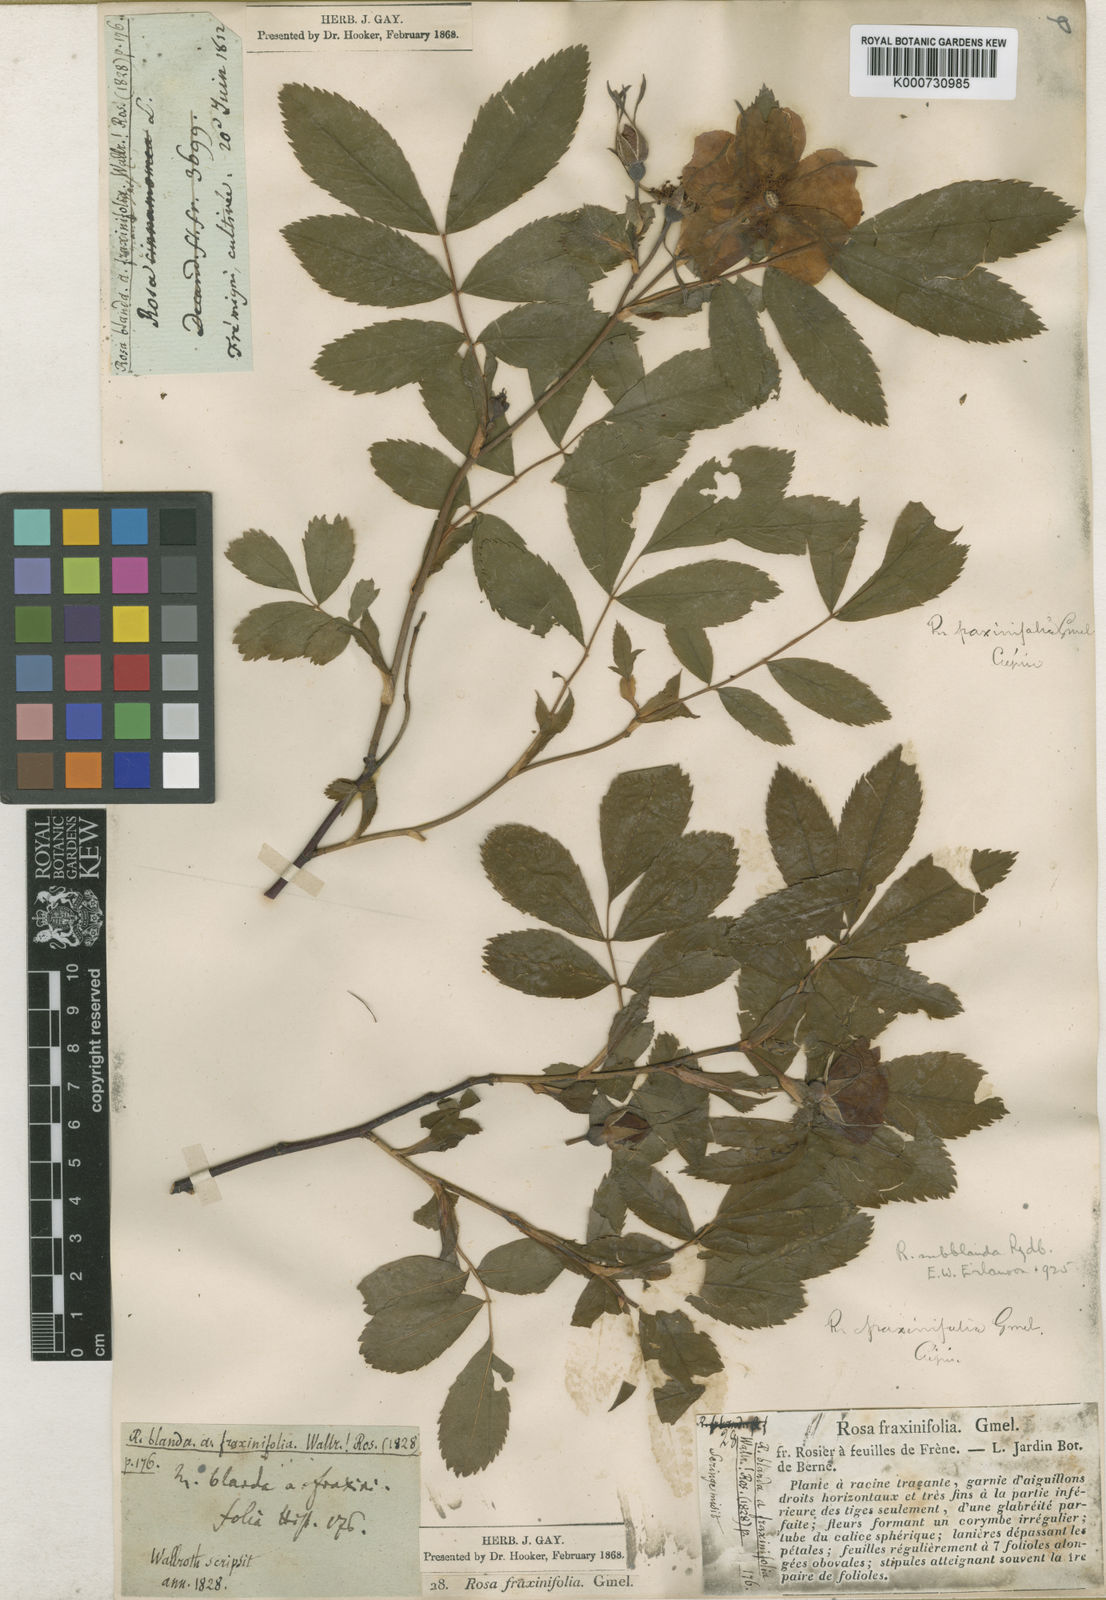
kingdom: Plantae
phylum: Tracheophyta
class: Magnoliopsida
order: Rosales
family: Rosaceae
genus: Rosa
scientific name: Rosa blanda
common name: Smooth rose
